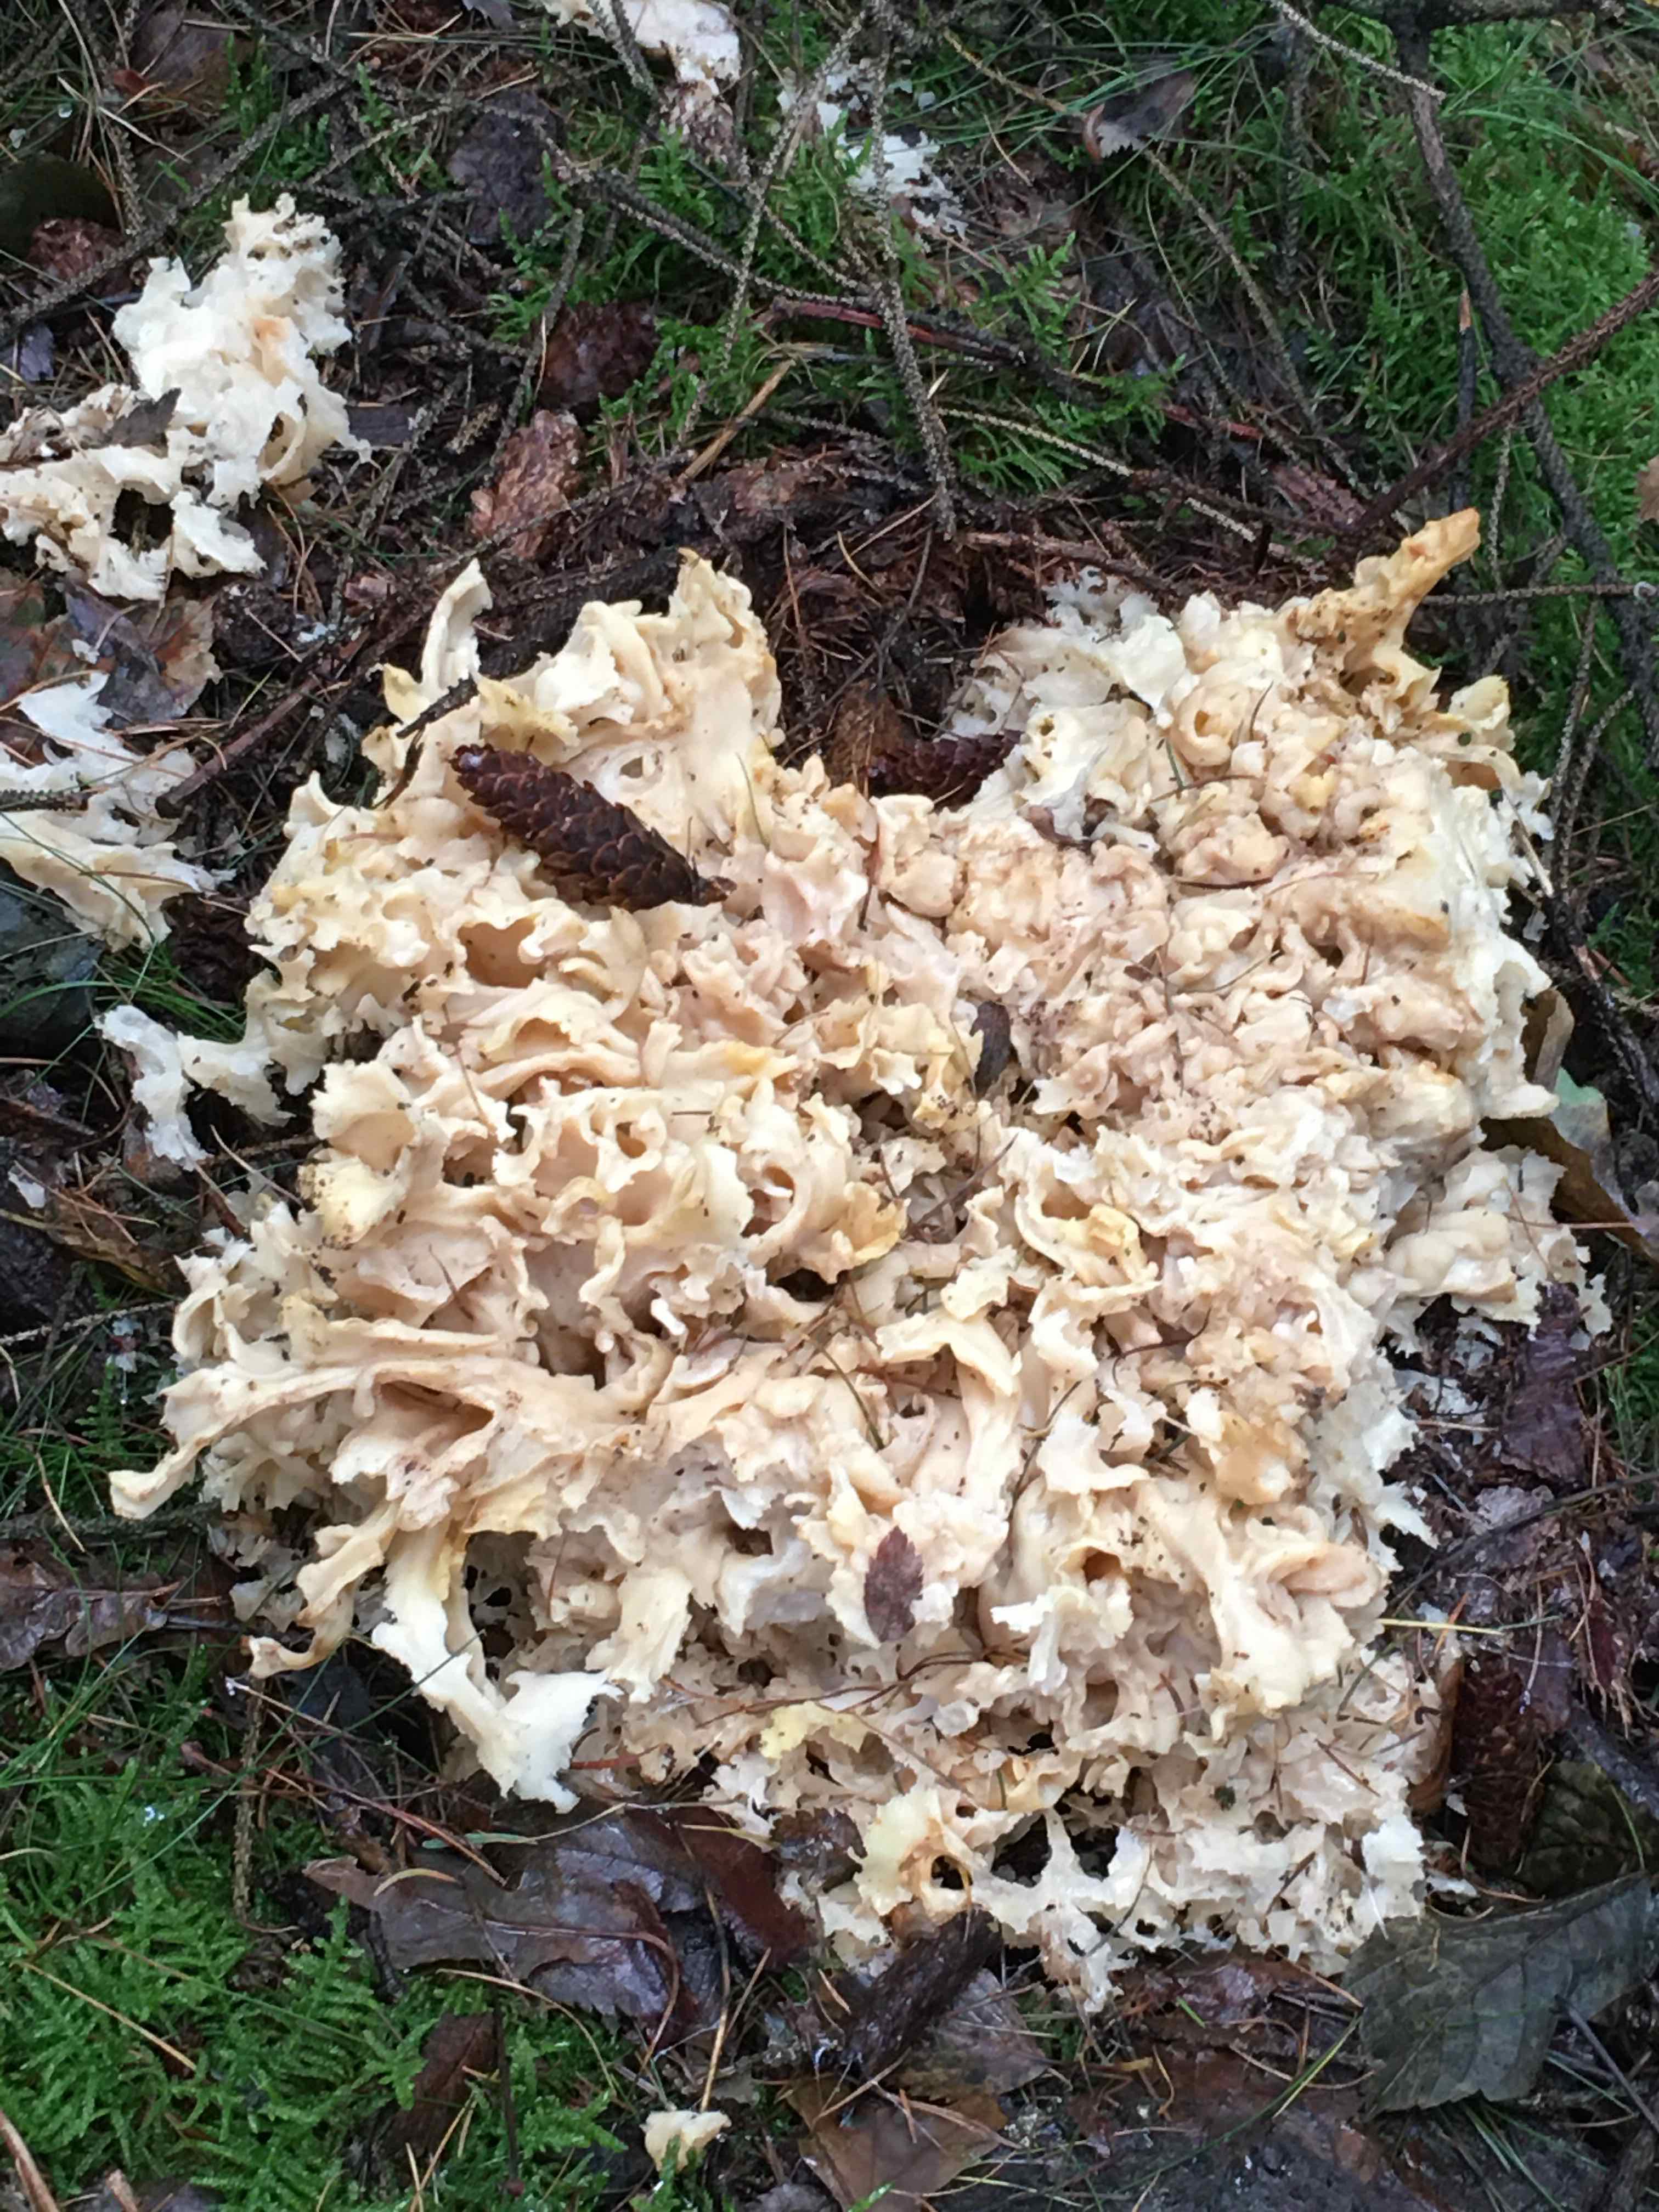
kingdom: Fungi
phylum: Basidiomycota
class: Agaricomycetes
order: Polyporales
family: Sparassidaceae
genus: Sparassis
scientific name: Sparassis crispa
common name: kruset blomkålssvamp
